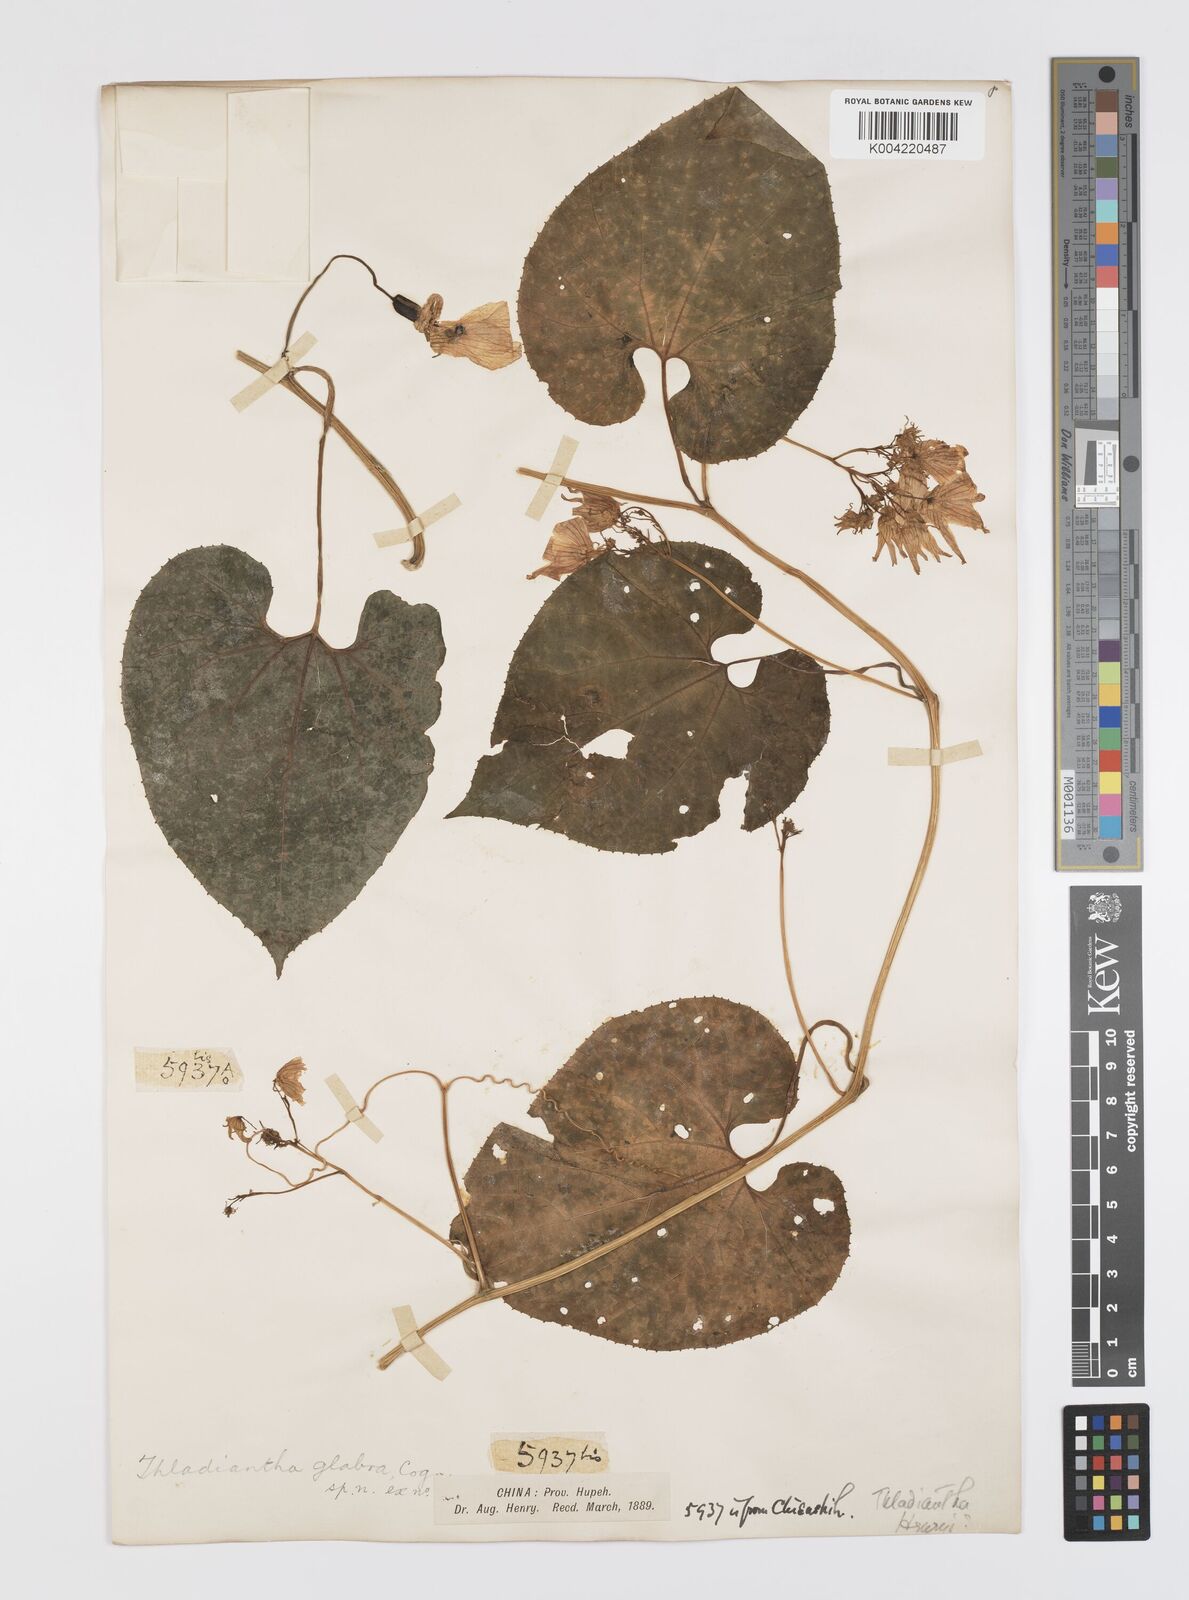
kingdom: Plantae
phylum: Tracheophyta
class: Magnoliopsida
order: Cucurbitales
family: Cucurbitaceae
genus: Thladiantha
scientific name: Thladiantha oliveri
